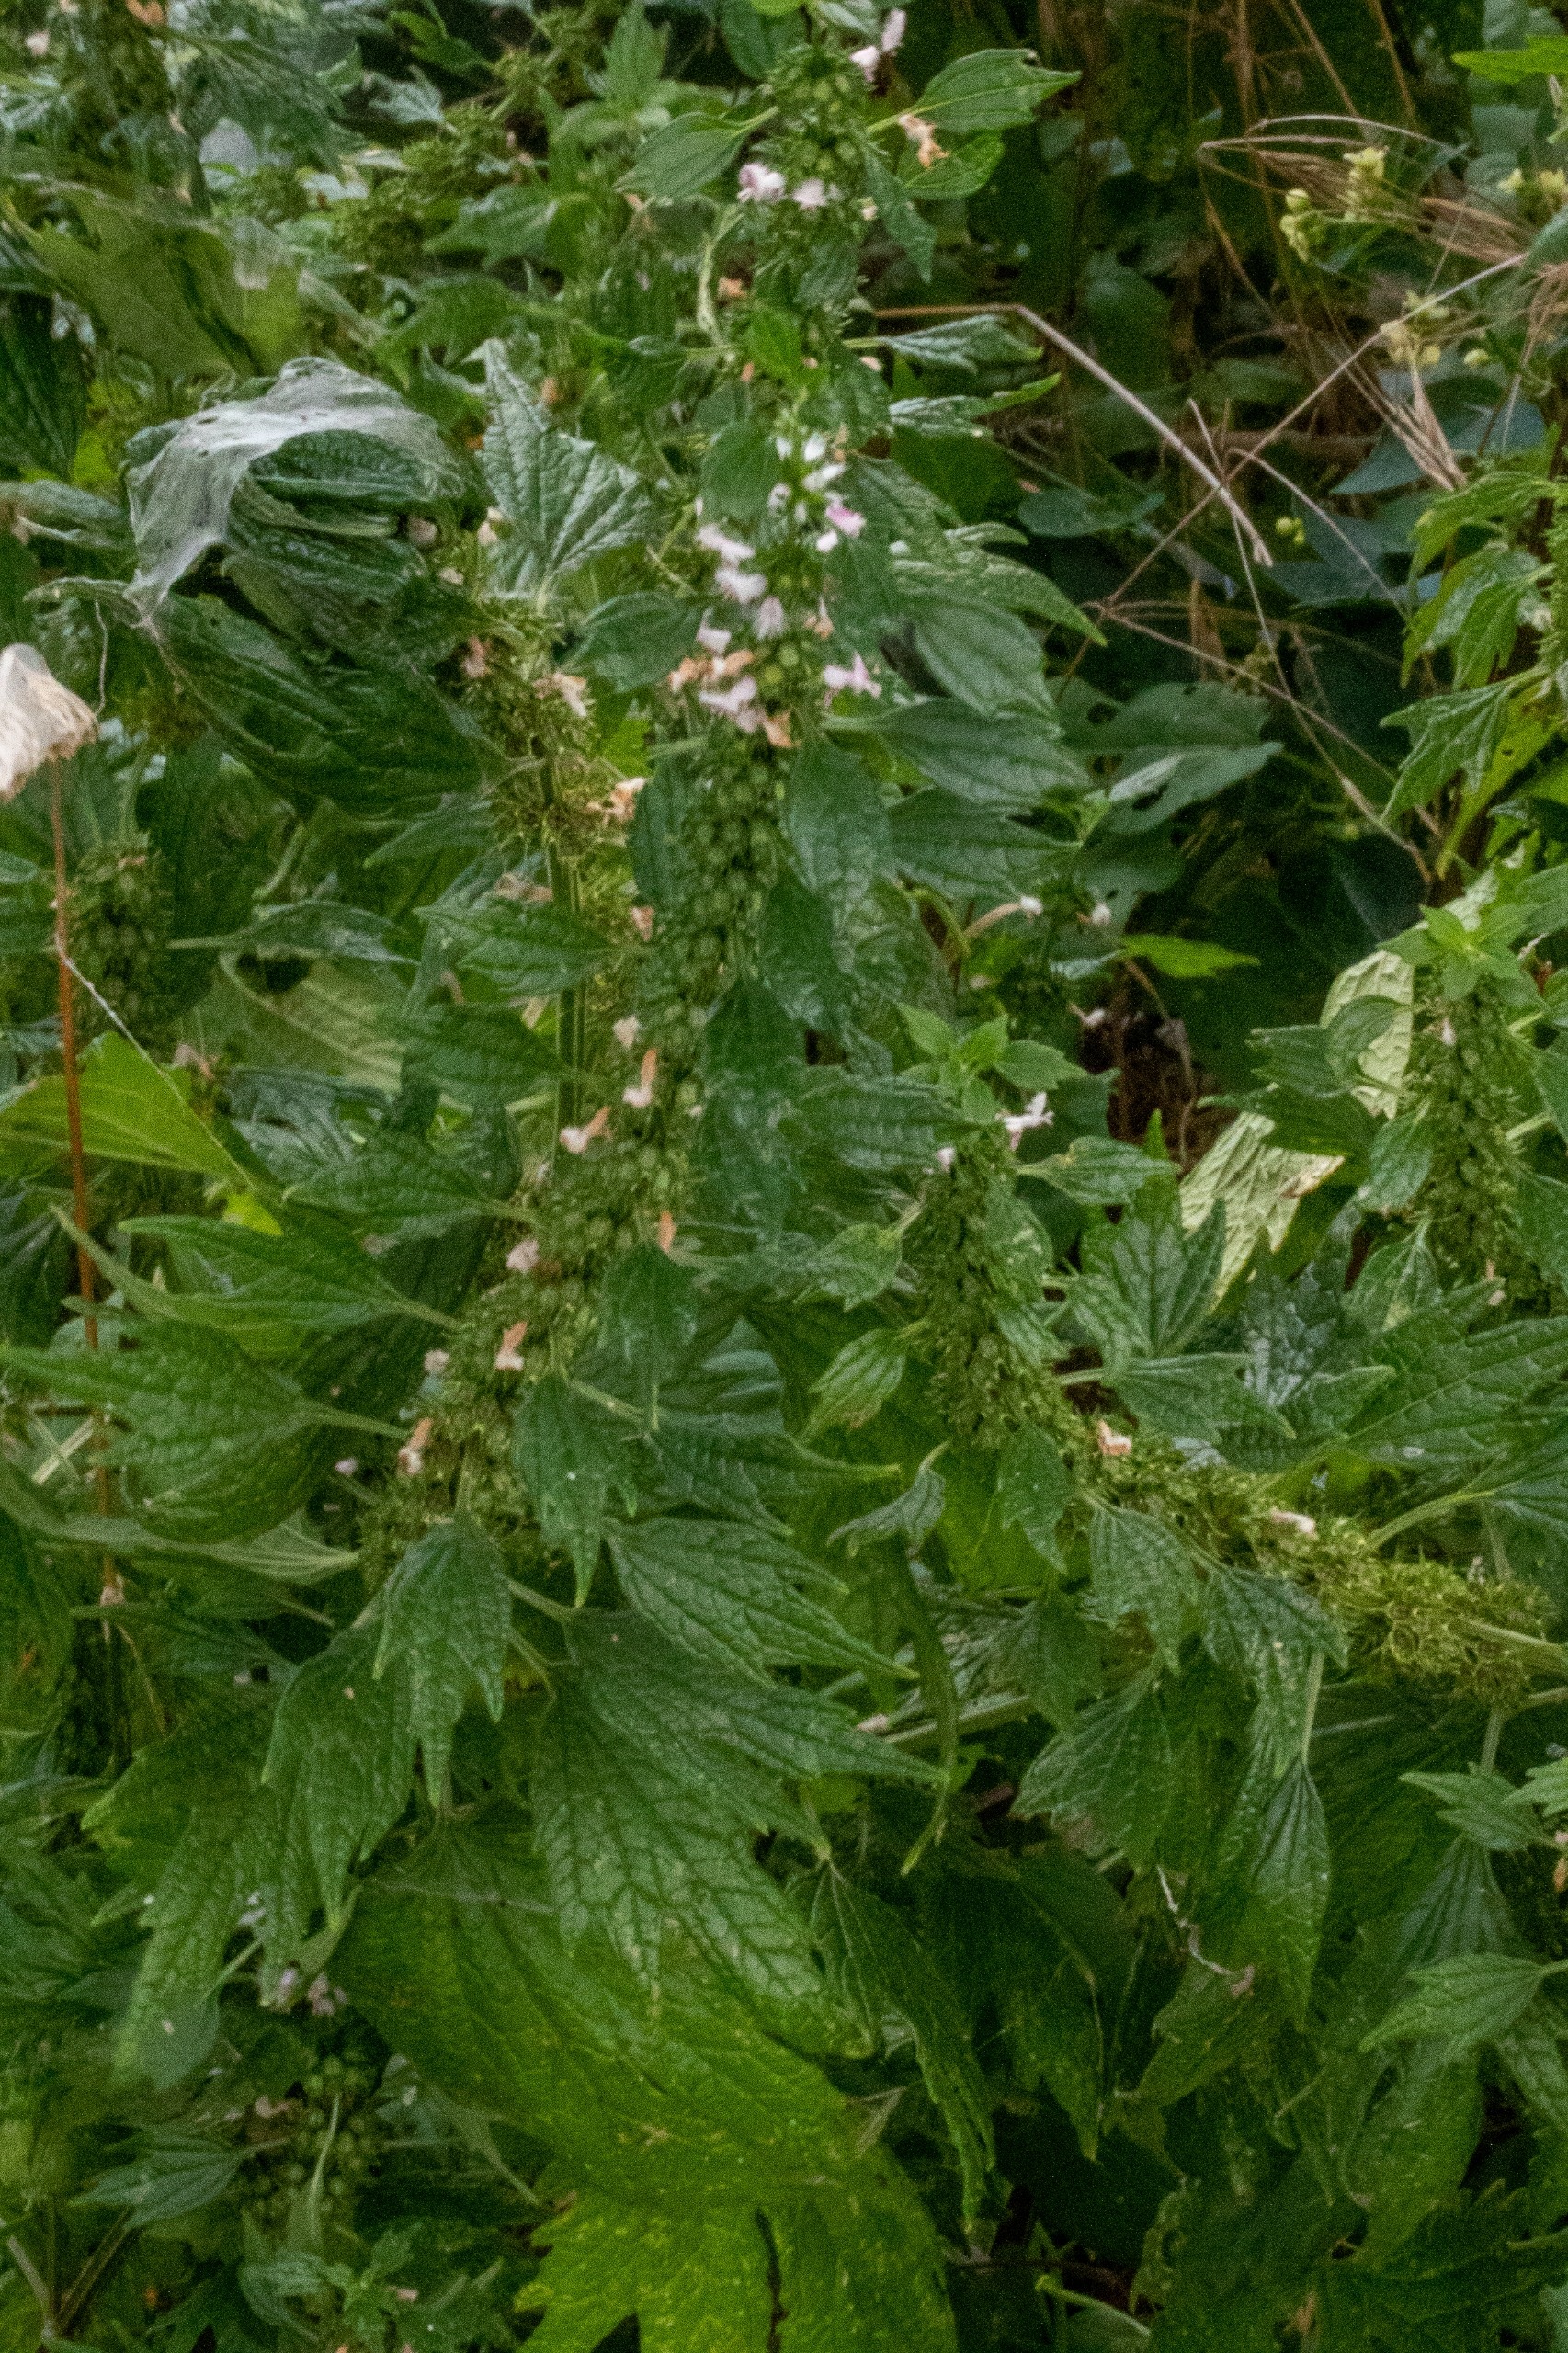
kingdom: Plantae
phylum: Tracheophyta
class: Magnoliopsida
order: Lamiales
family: Lamiaceae
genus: Leonurus
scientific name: Leonurus cardiaca
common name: Hjertespand
